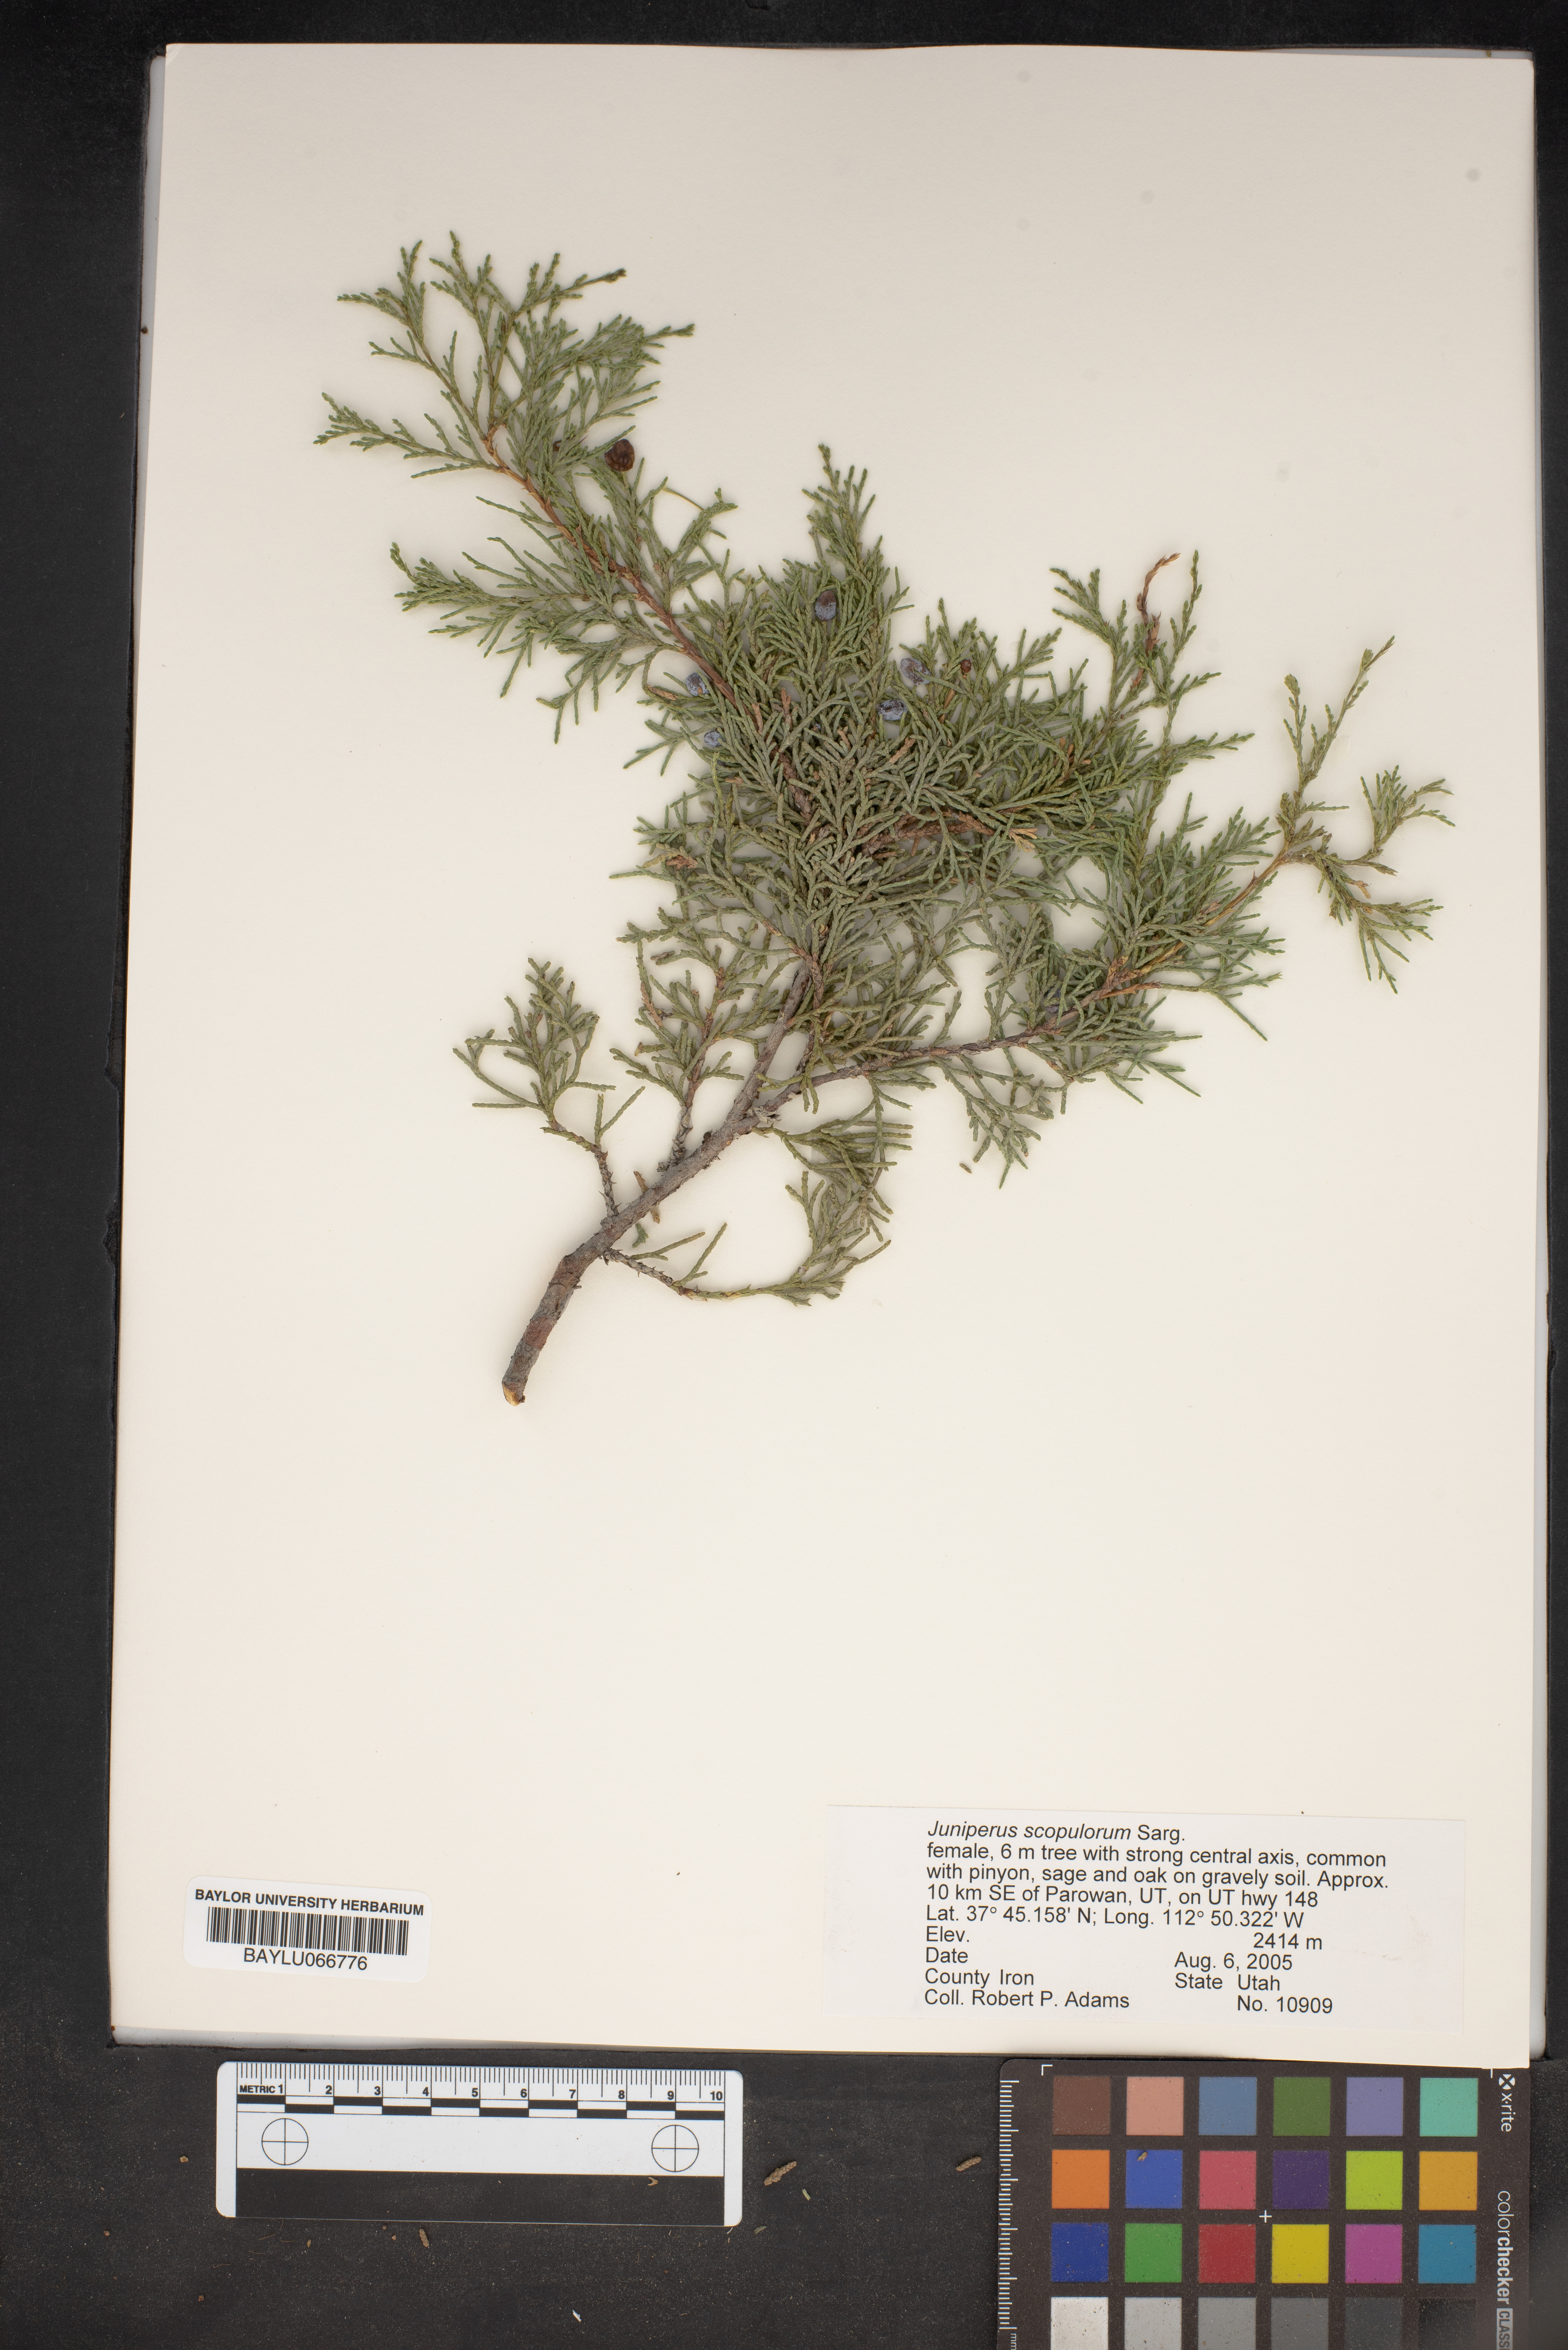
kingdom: Plantae
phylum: Tracheophyta
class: Pinopsida
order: Pinales
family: Cupressaceae
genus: Juniperus
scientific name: Juniperus scopulorum
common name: Rocky mountain juniper
